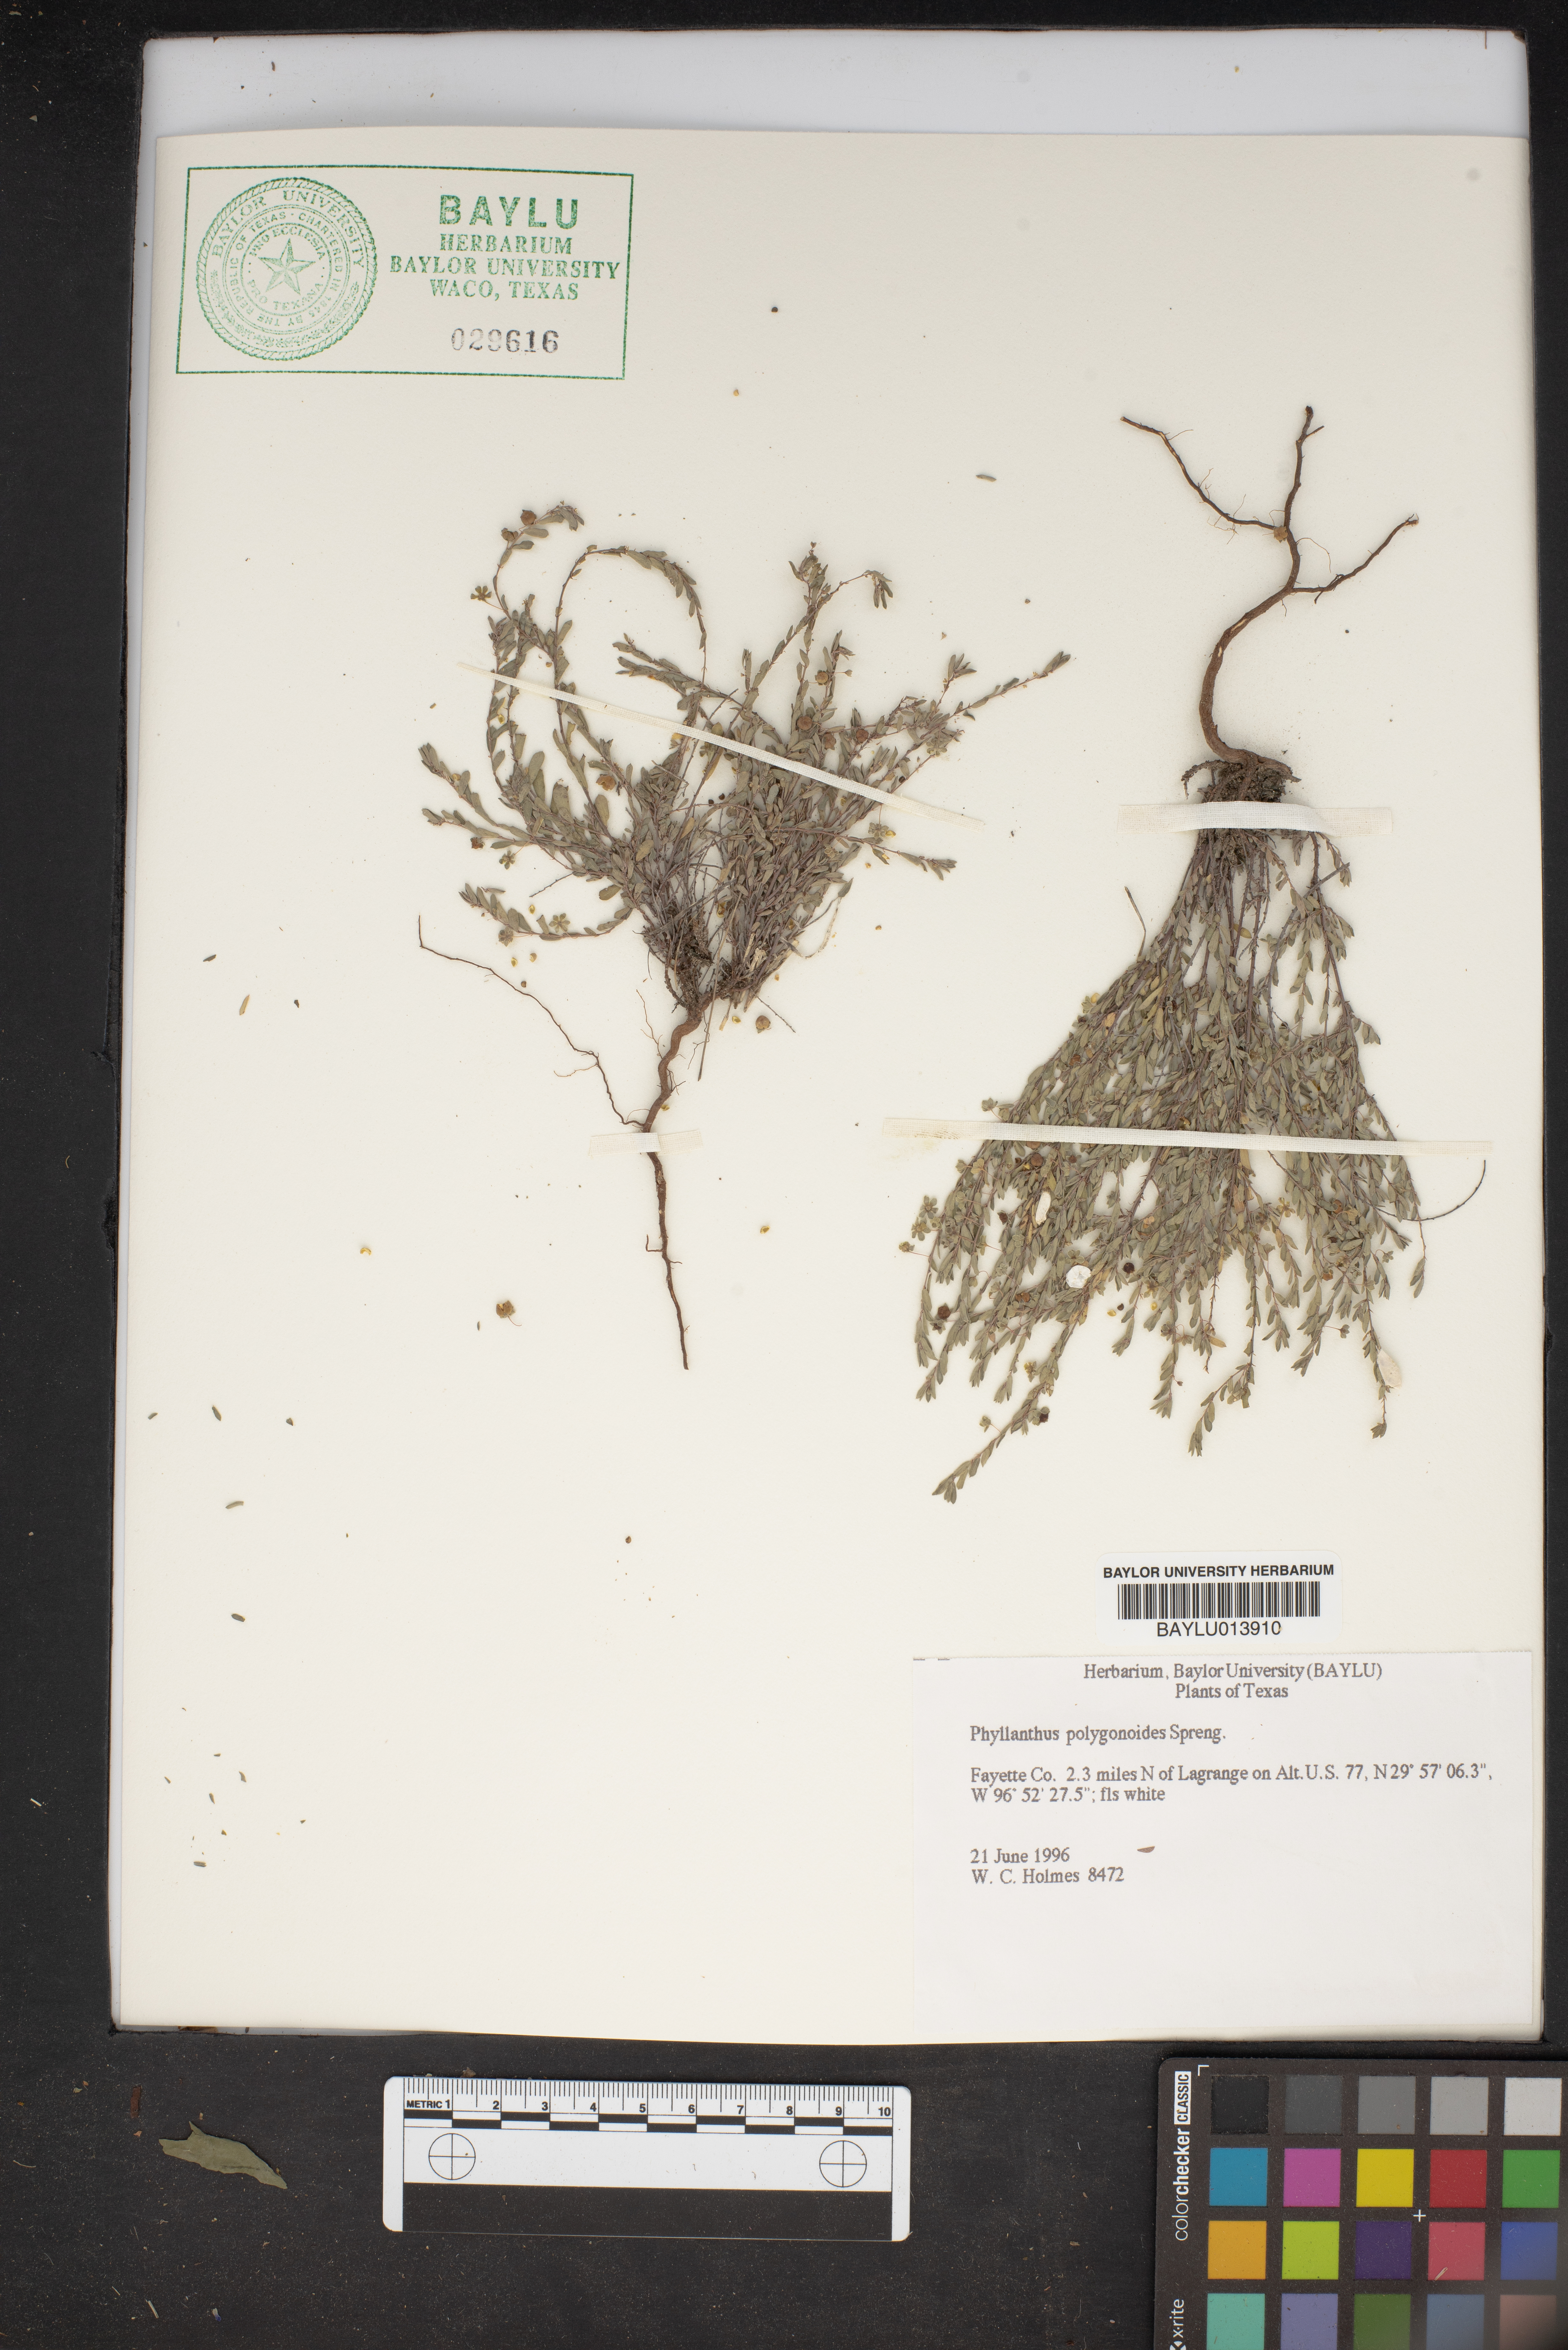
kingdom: Plantae
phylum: Tracheophyta
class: Magnoliopsida
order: Malpighiales
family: Phyllanthaceae
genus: Phyllanthus
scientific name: Phyllanthus polygonoides
